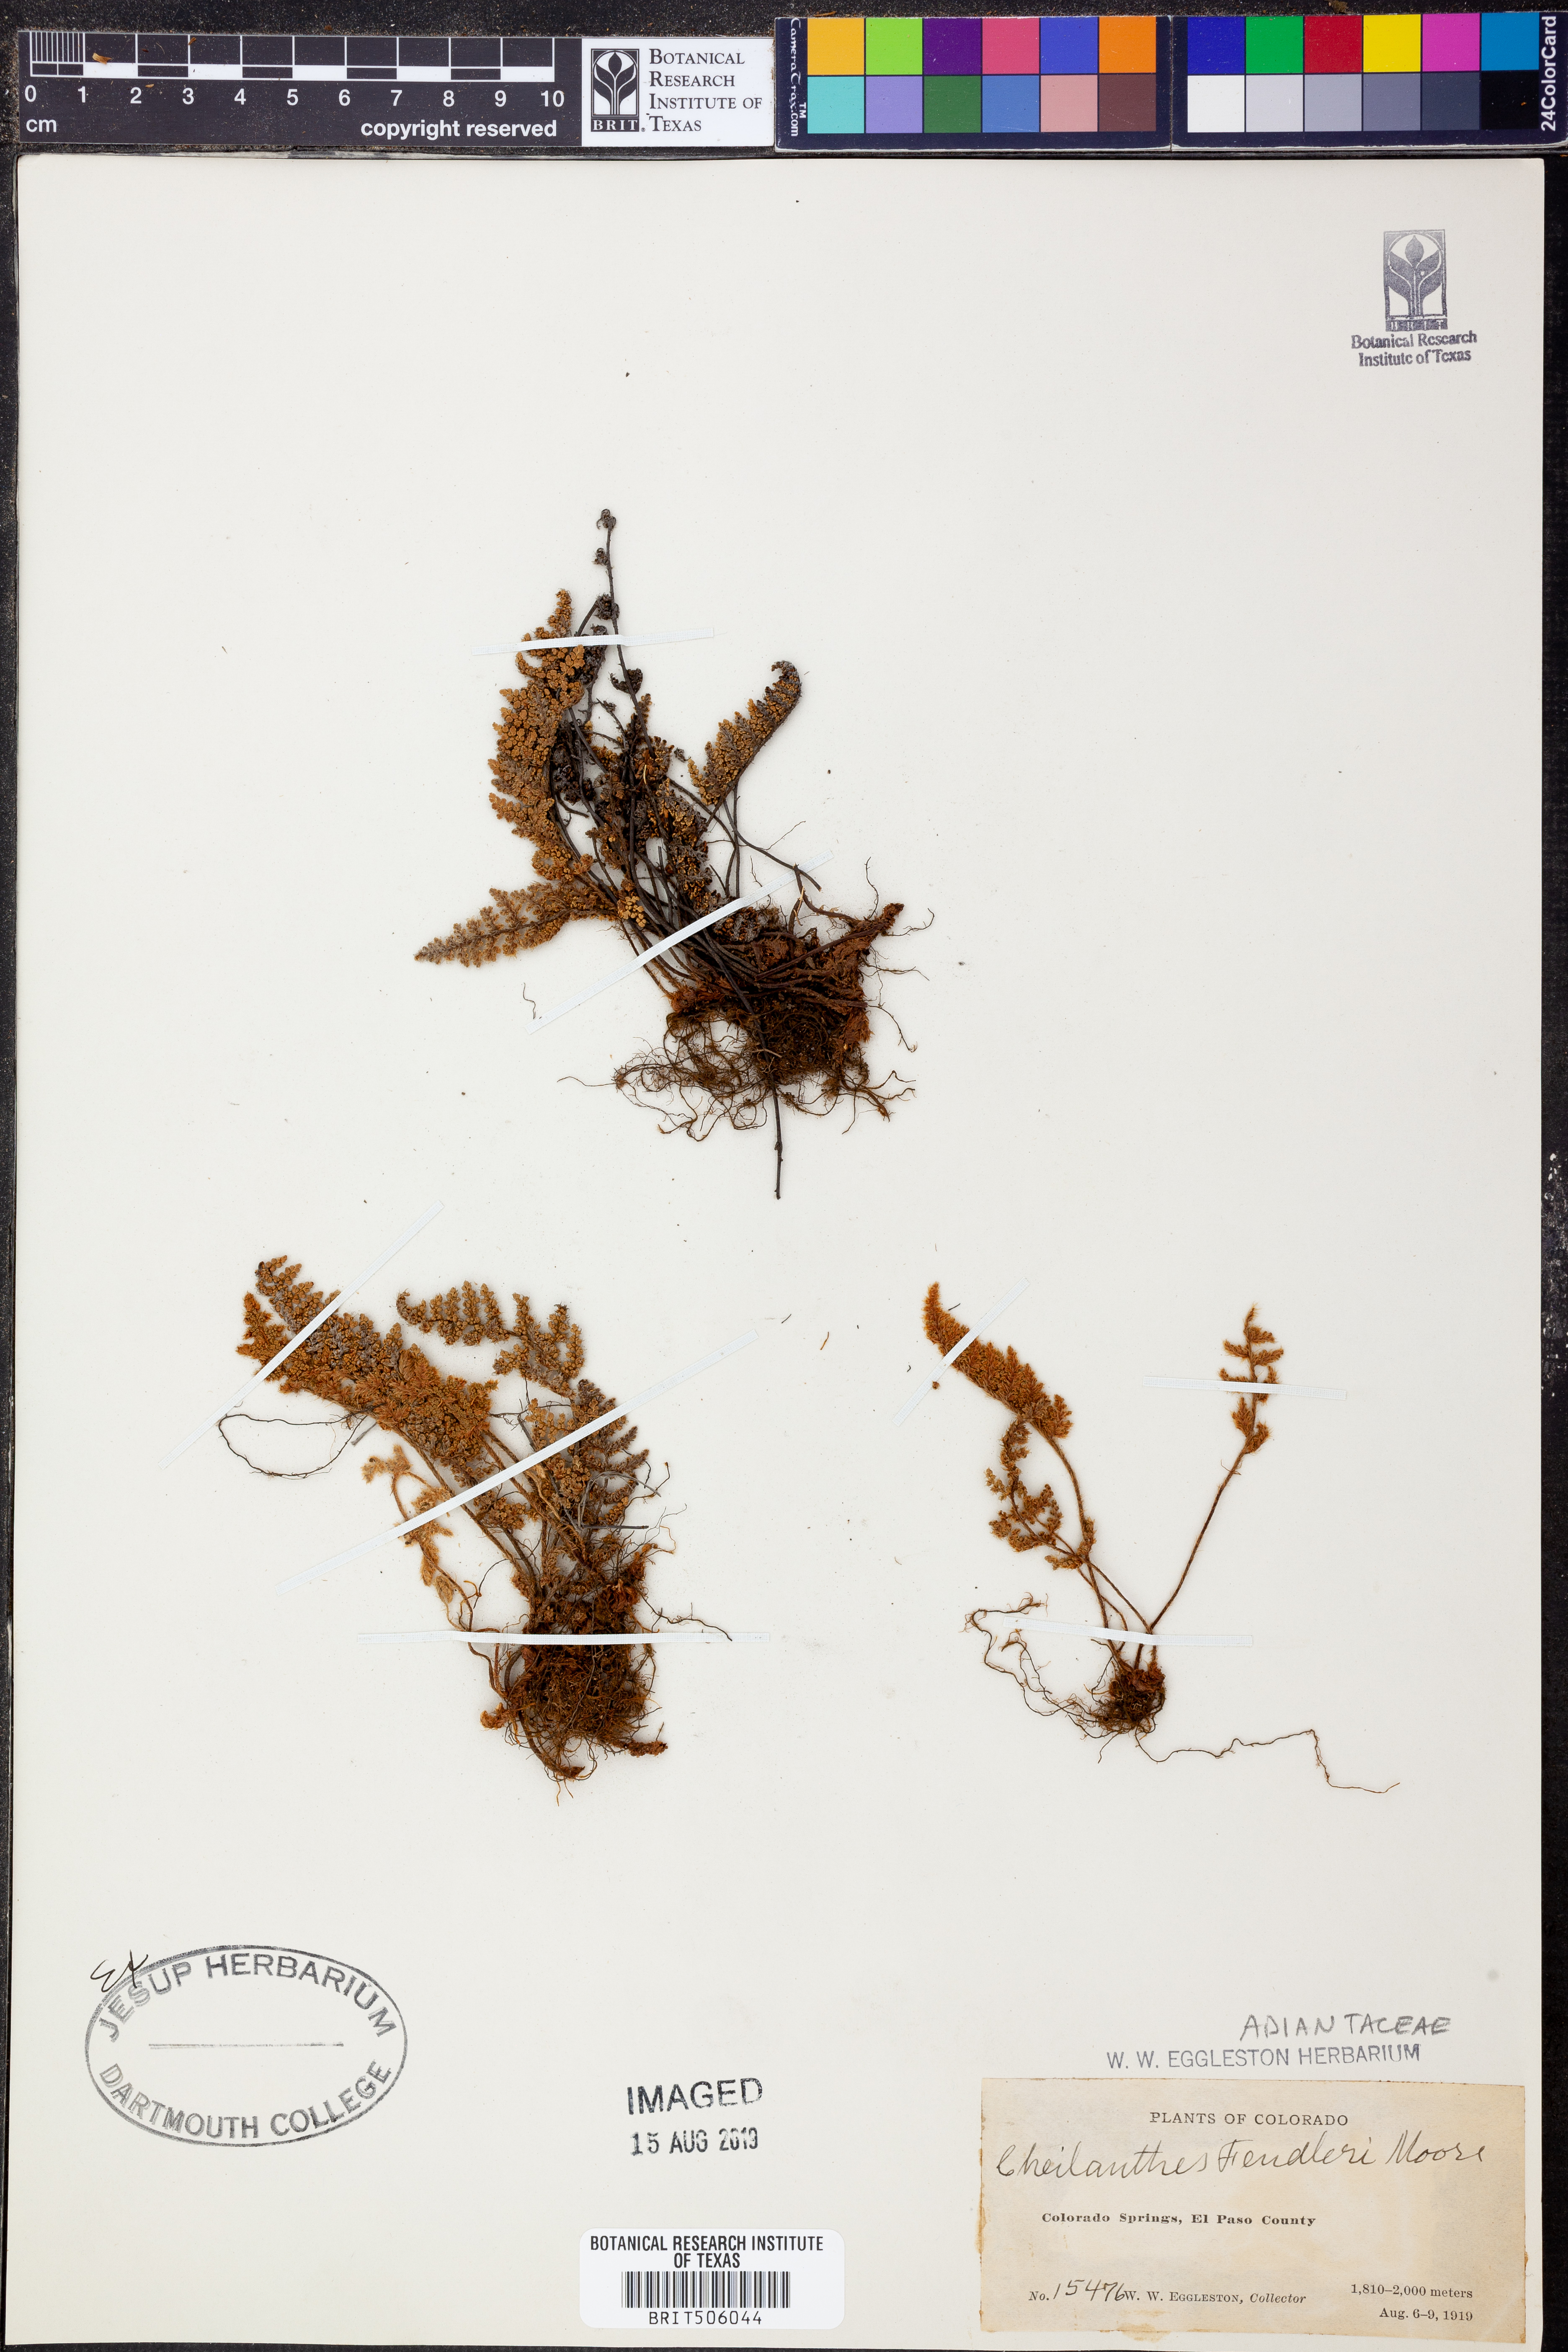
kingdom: Plantae
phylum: Tracheophyta
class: Polypodiopsida
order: Polypodiales
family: Pteridaceae
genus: Myriopteris
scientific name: Myriopteris fendleri
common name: Fendler's lip fern
